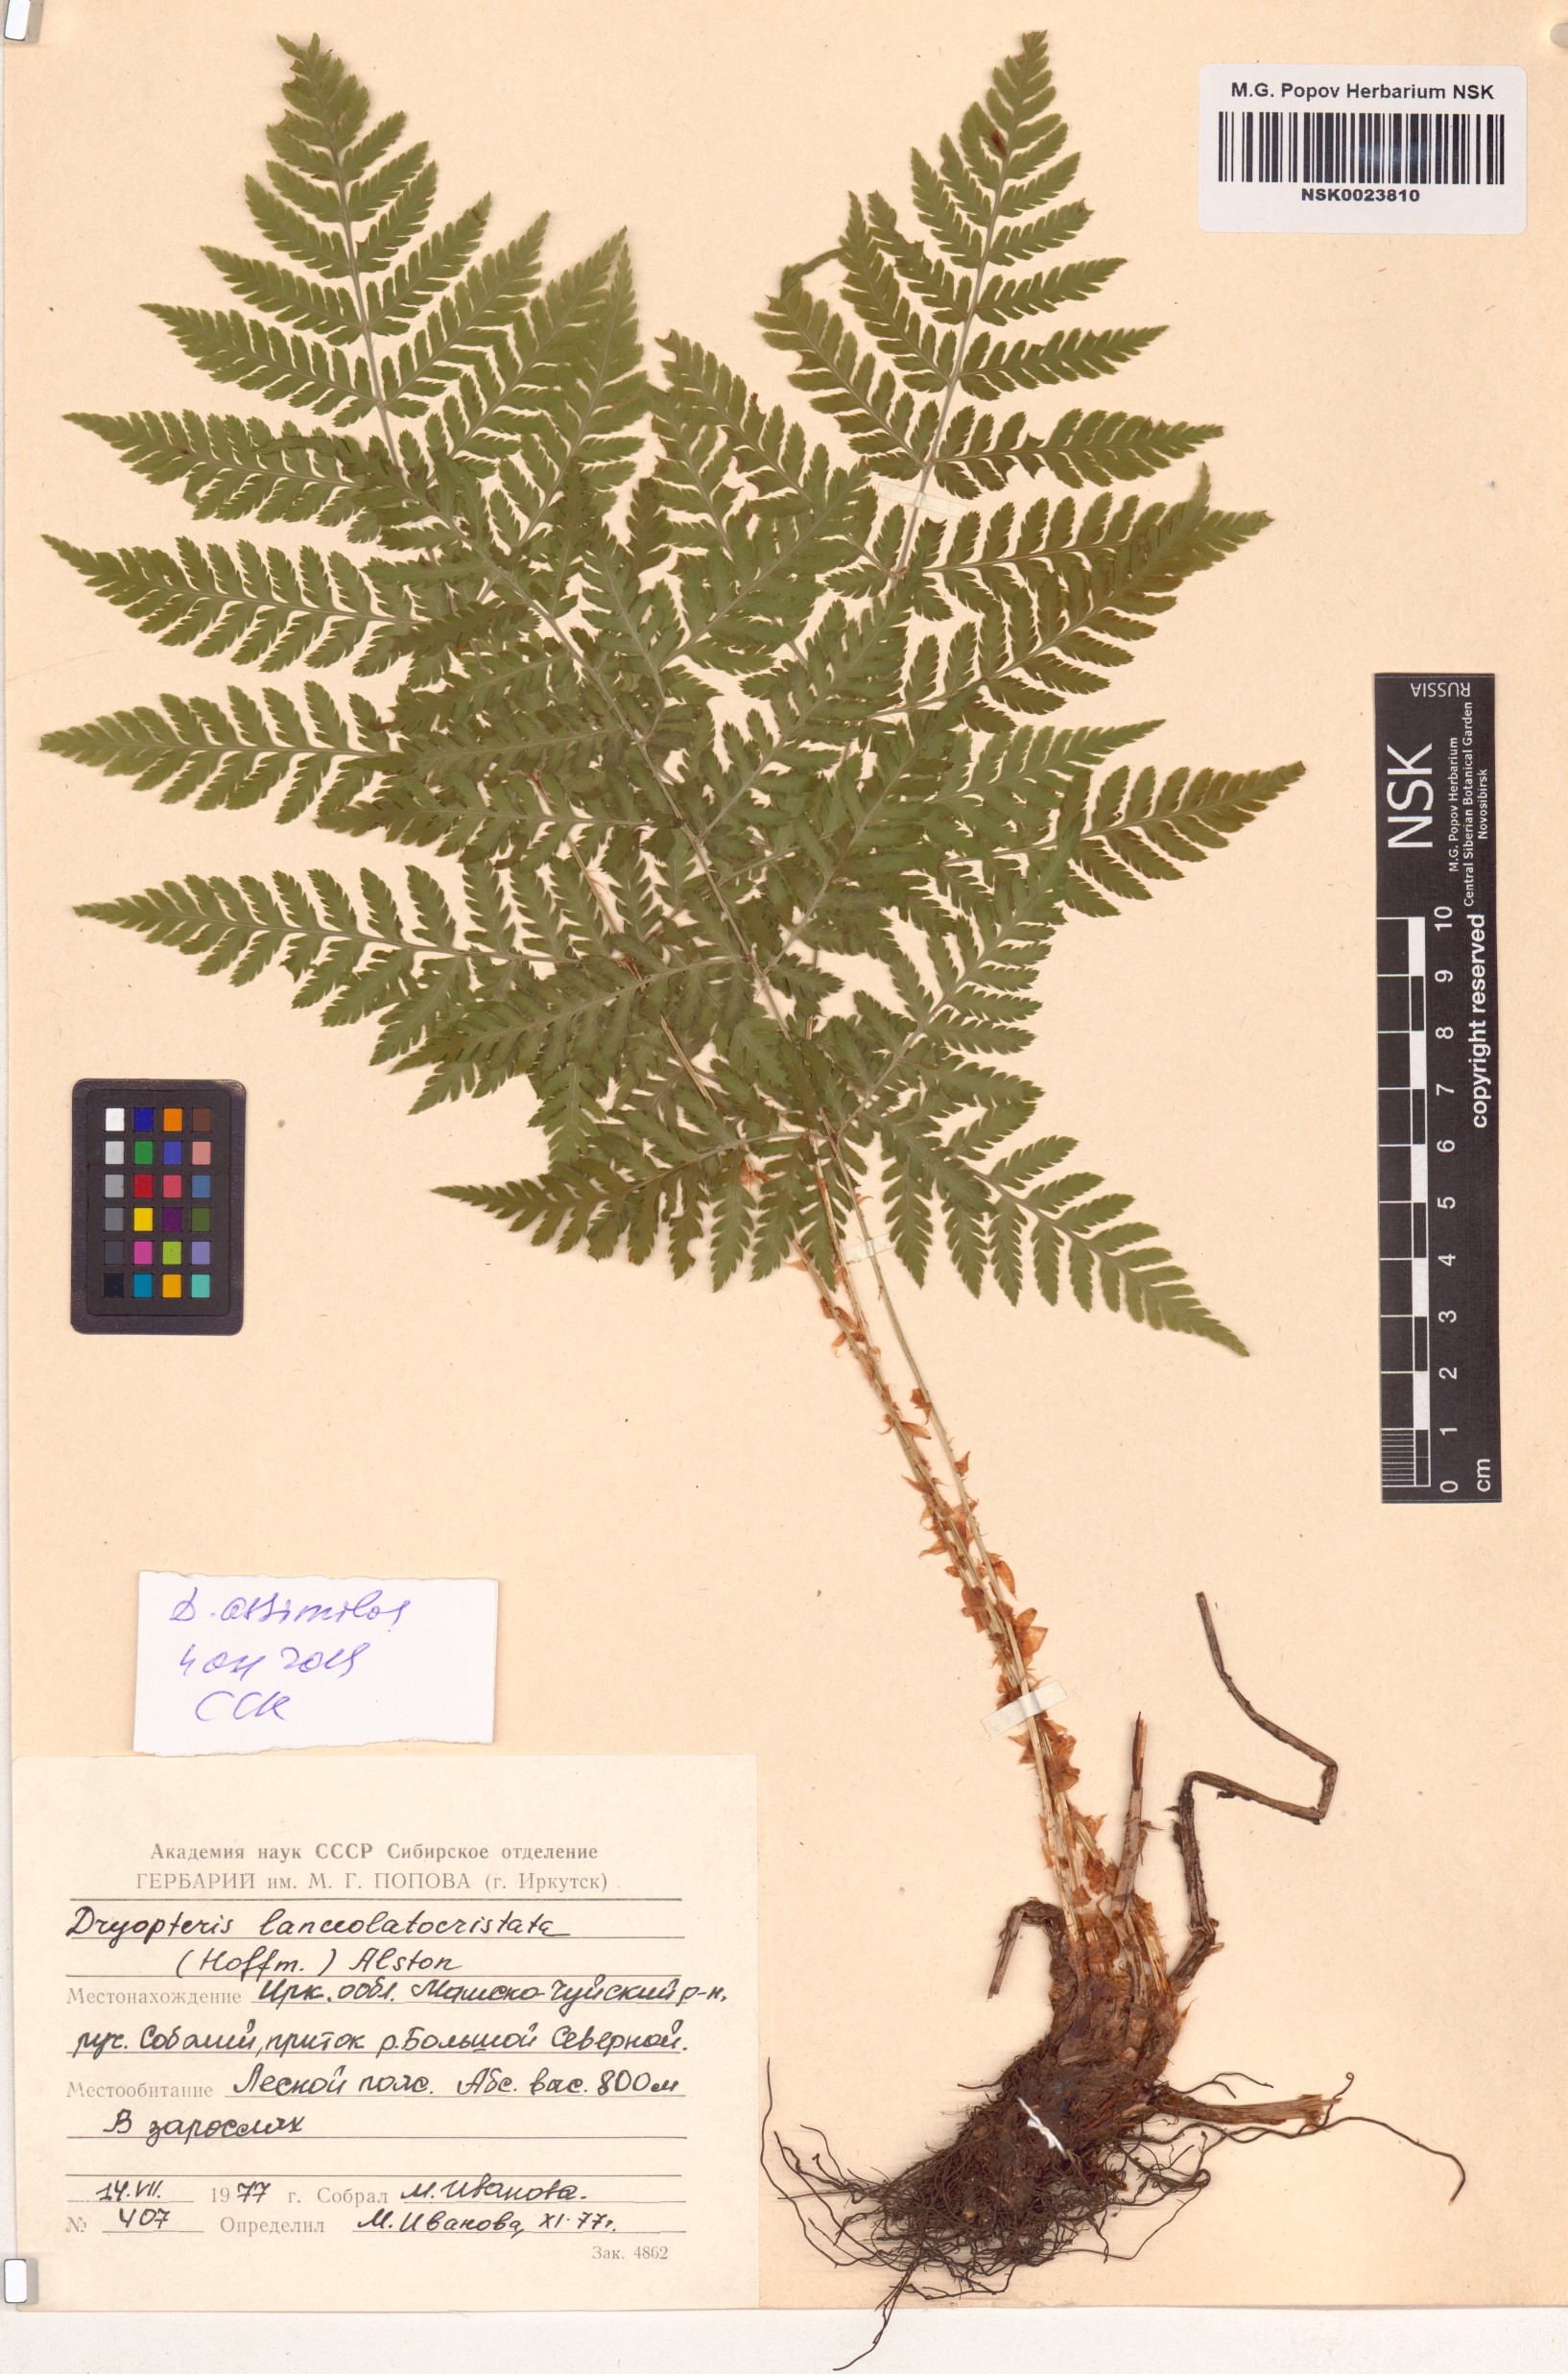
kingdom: Plantae
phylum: Tracheophyta
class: Polypodiopsida
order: Polypodiales
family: Dryopteridaceae
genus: Dryopteris
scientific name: Dryopteris expansa
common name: Northern buckler fern
